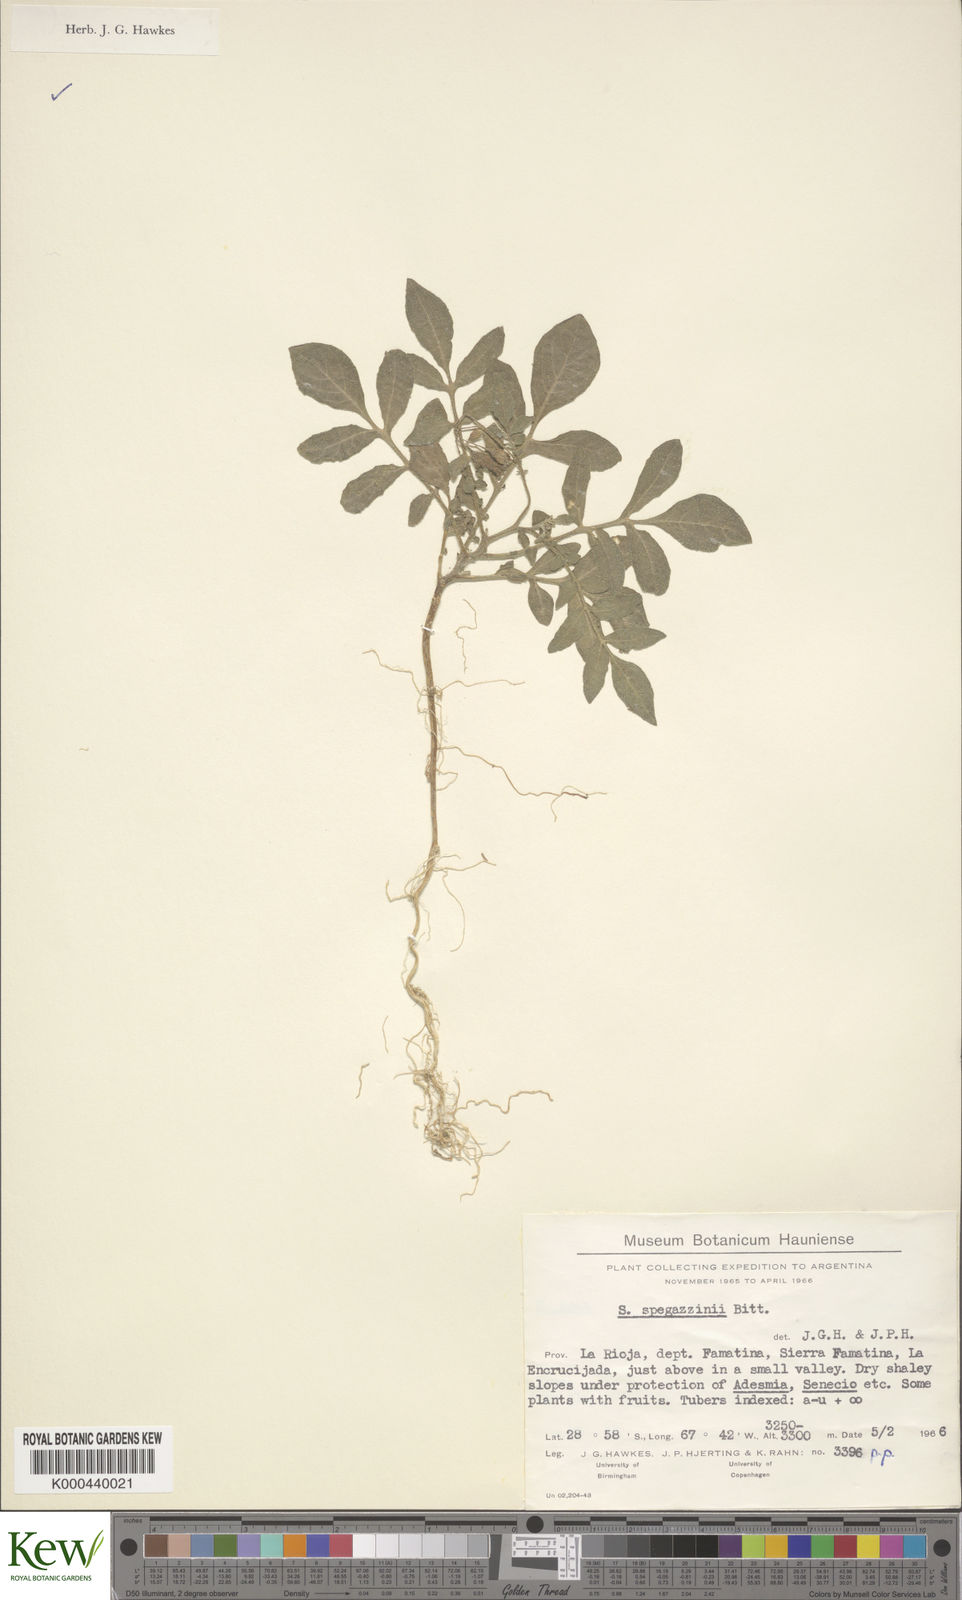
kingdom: Plantae
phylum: Tracheophyta
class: Magnoliopsida
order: Solanales
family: Solanaceae
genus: Solanum
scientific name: Solanum brevicaule
